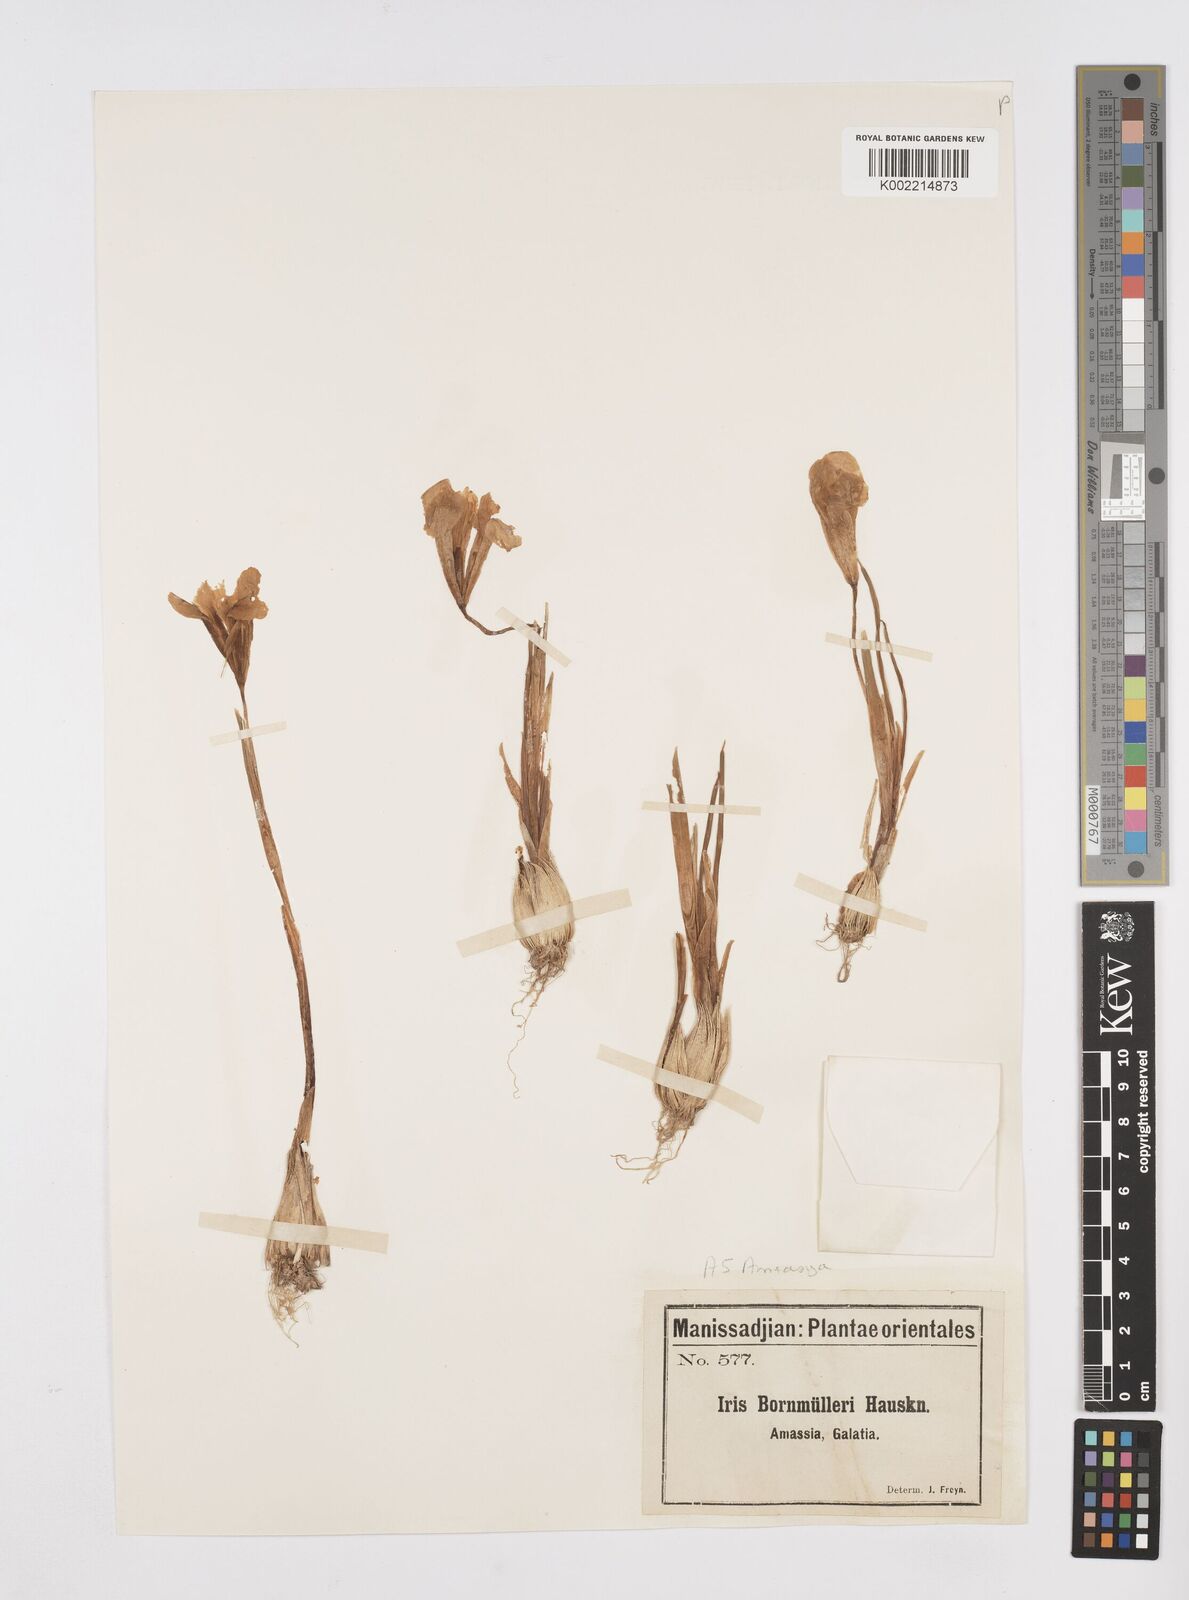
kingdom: Plantae
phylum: Tracheophyta
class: Liliopsida
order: Asparagales
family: Iridaceae
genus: Iris
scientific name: Iris danfordiae
